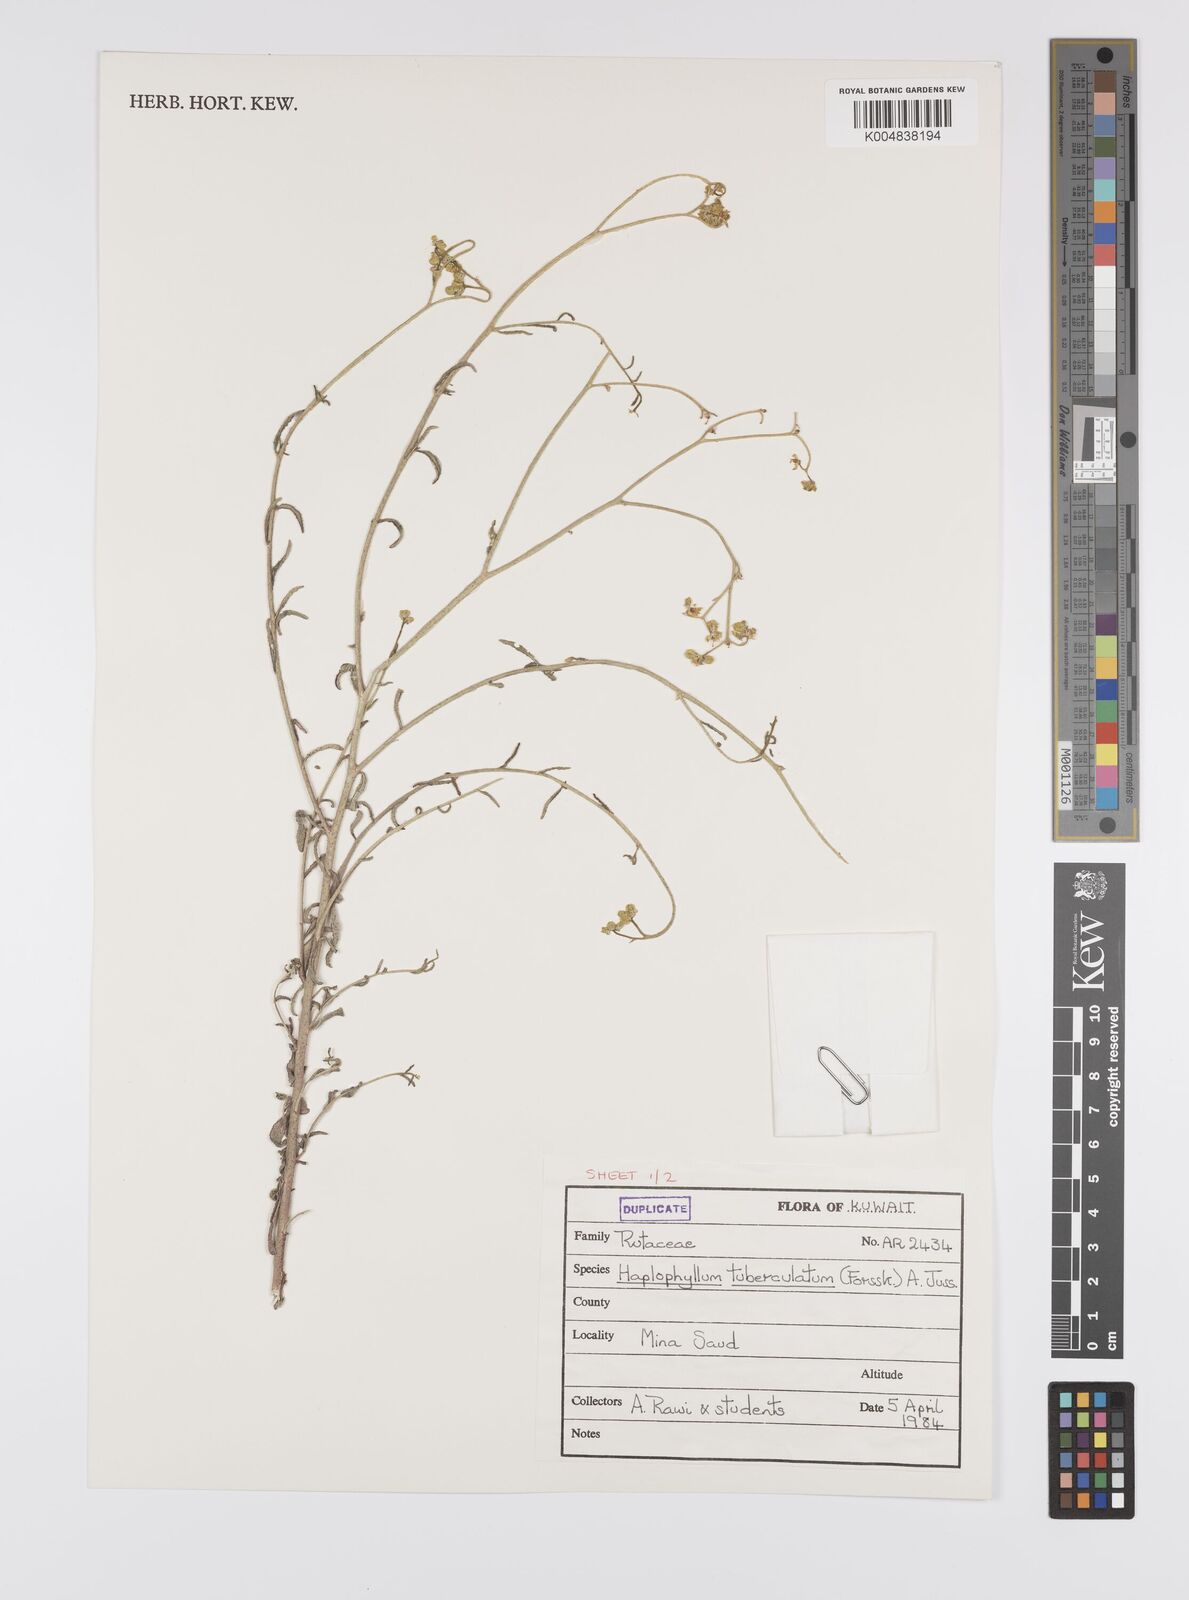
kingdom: Plantae
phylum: Tracheophyta
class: Magnoliopsida
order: Sapindales
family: Rutaceae
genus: Haplophyllum
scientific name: Haplophyllum tuberculatum
